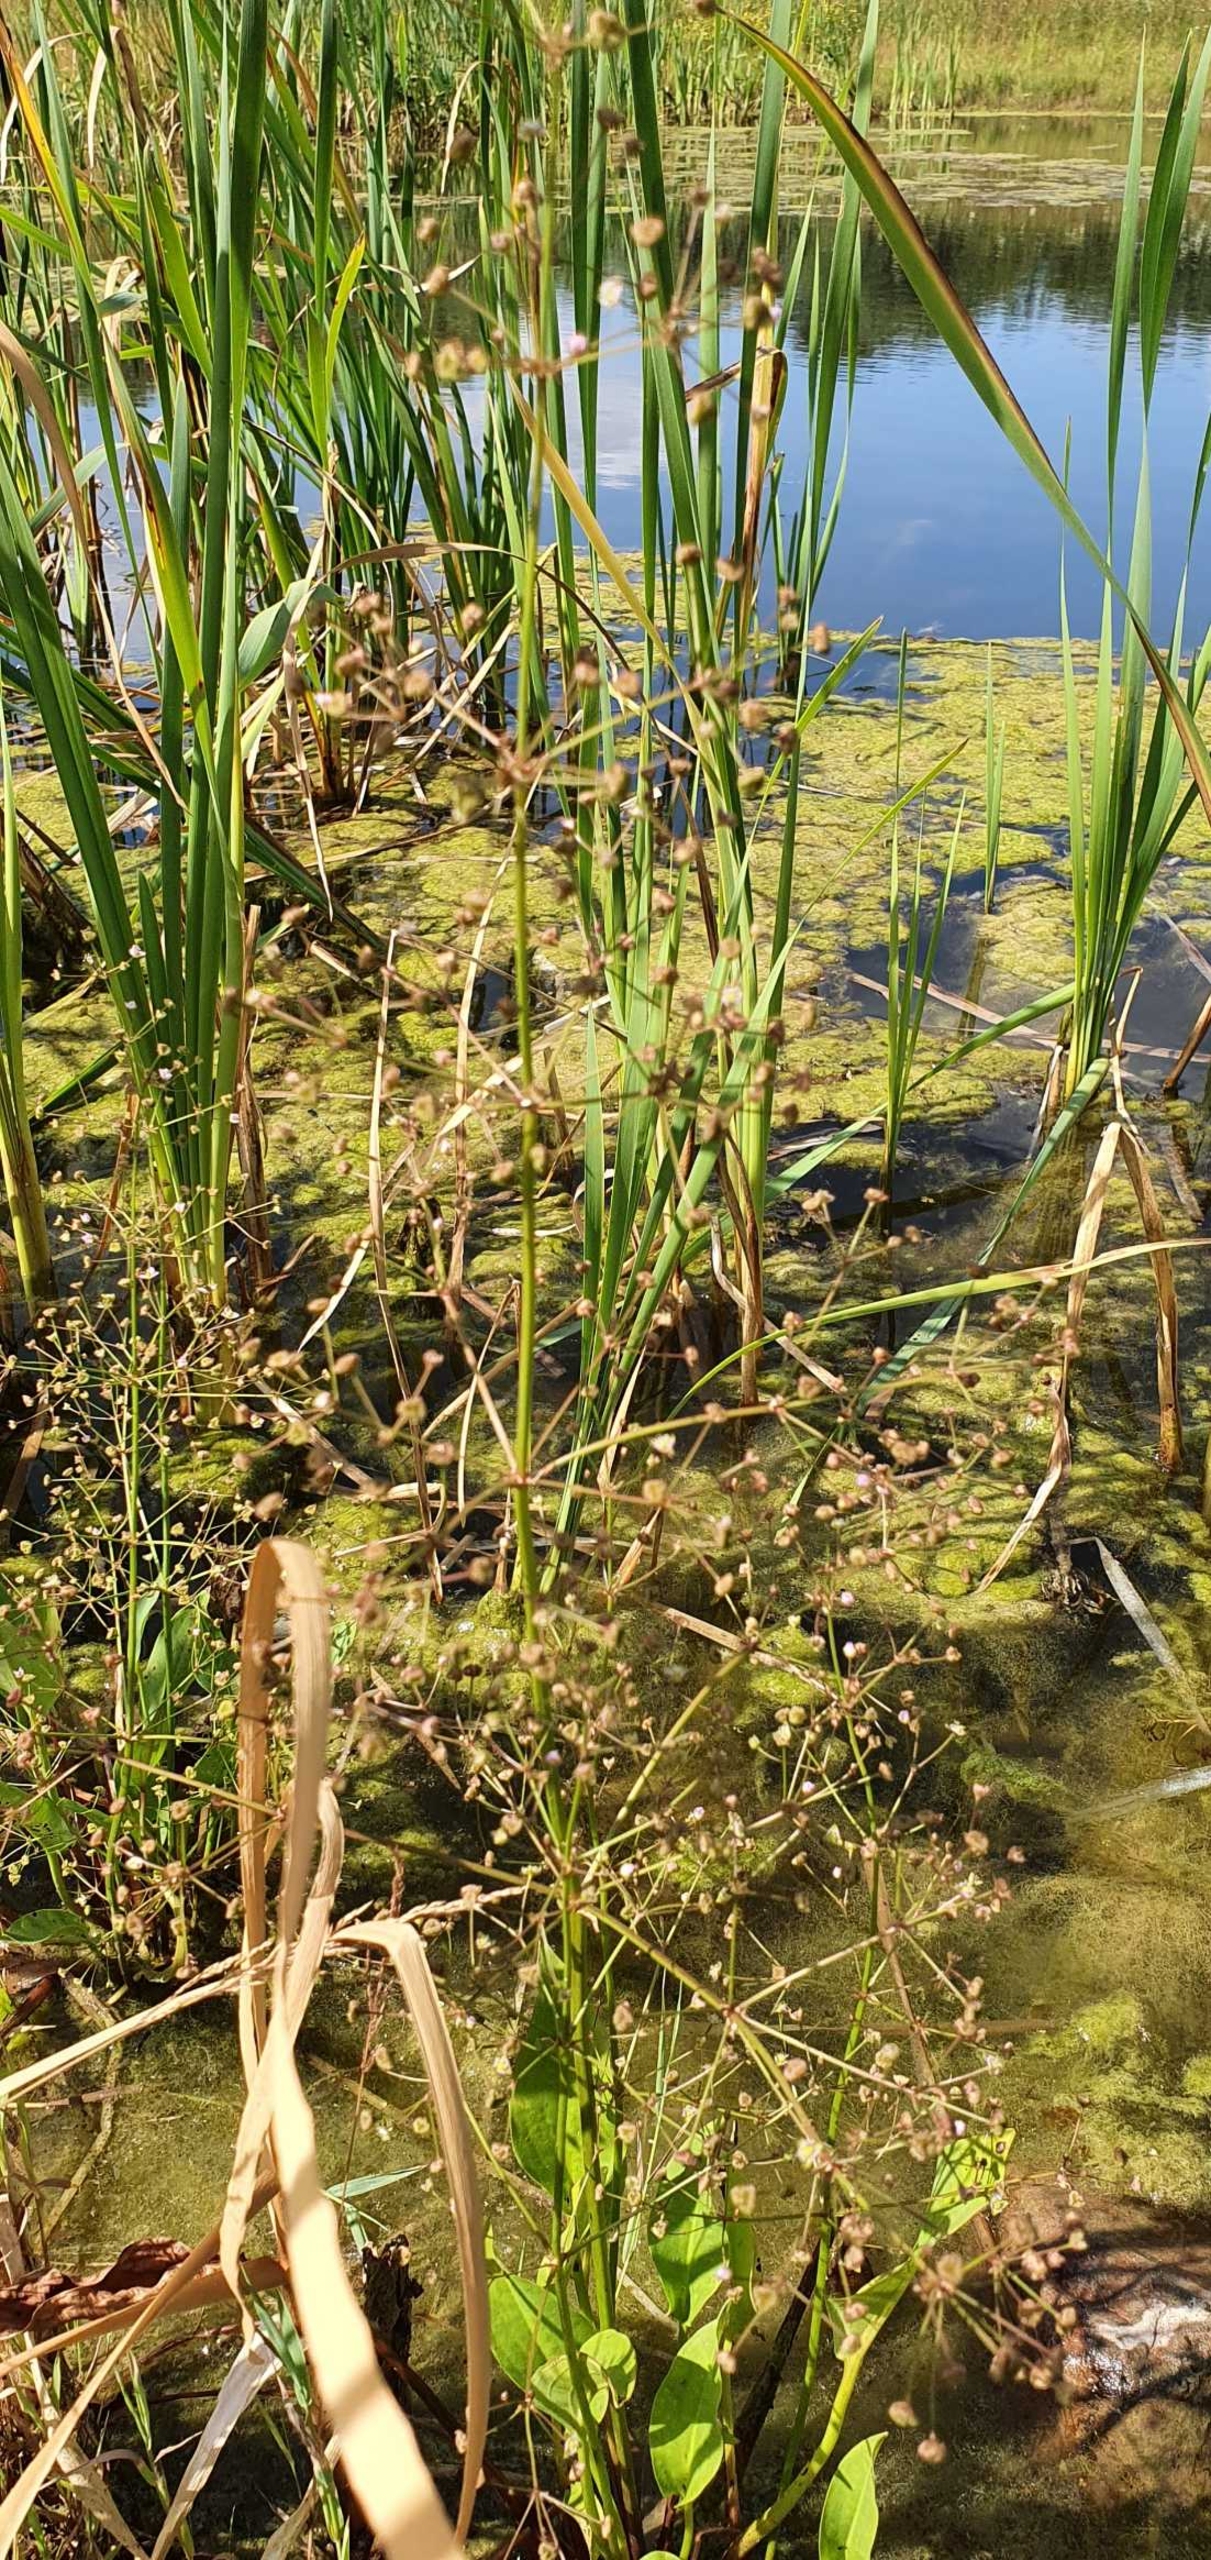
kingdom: Plantae
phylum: Tracheophyta
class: Liliopsida
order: Alismatales
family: Alismataceae
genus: Alisma
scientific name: Alisma plantago-aquatica
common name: Vejbred-skeblad
